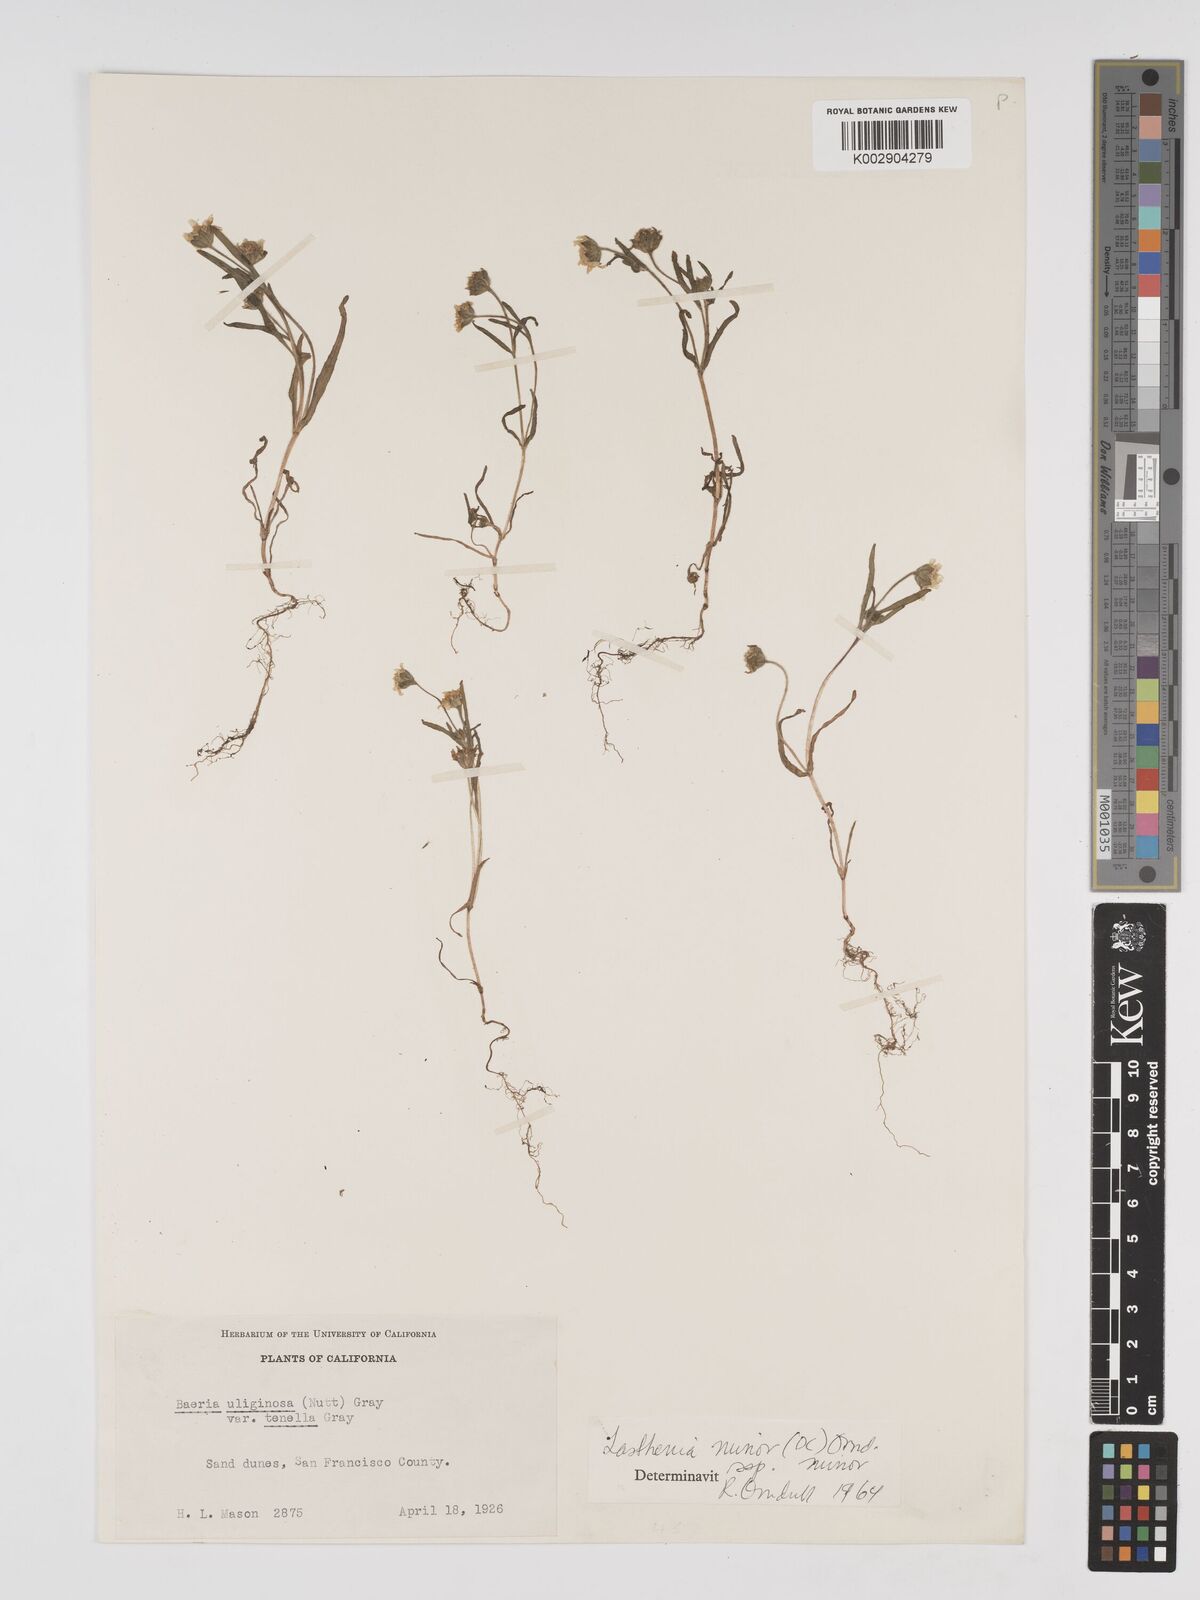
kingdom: Plantae
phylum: Tracheophyta
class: Magnoliopsida
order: Asterales
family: Asteraceae
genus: Lasthenia
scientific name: Lasthenia minor
